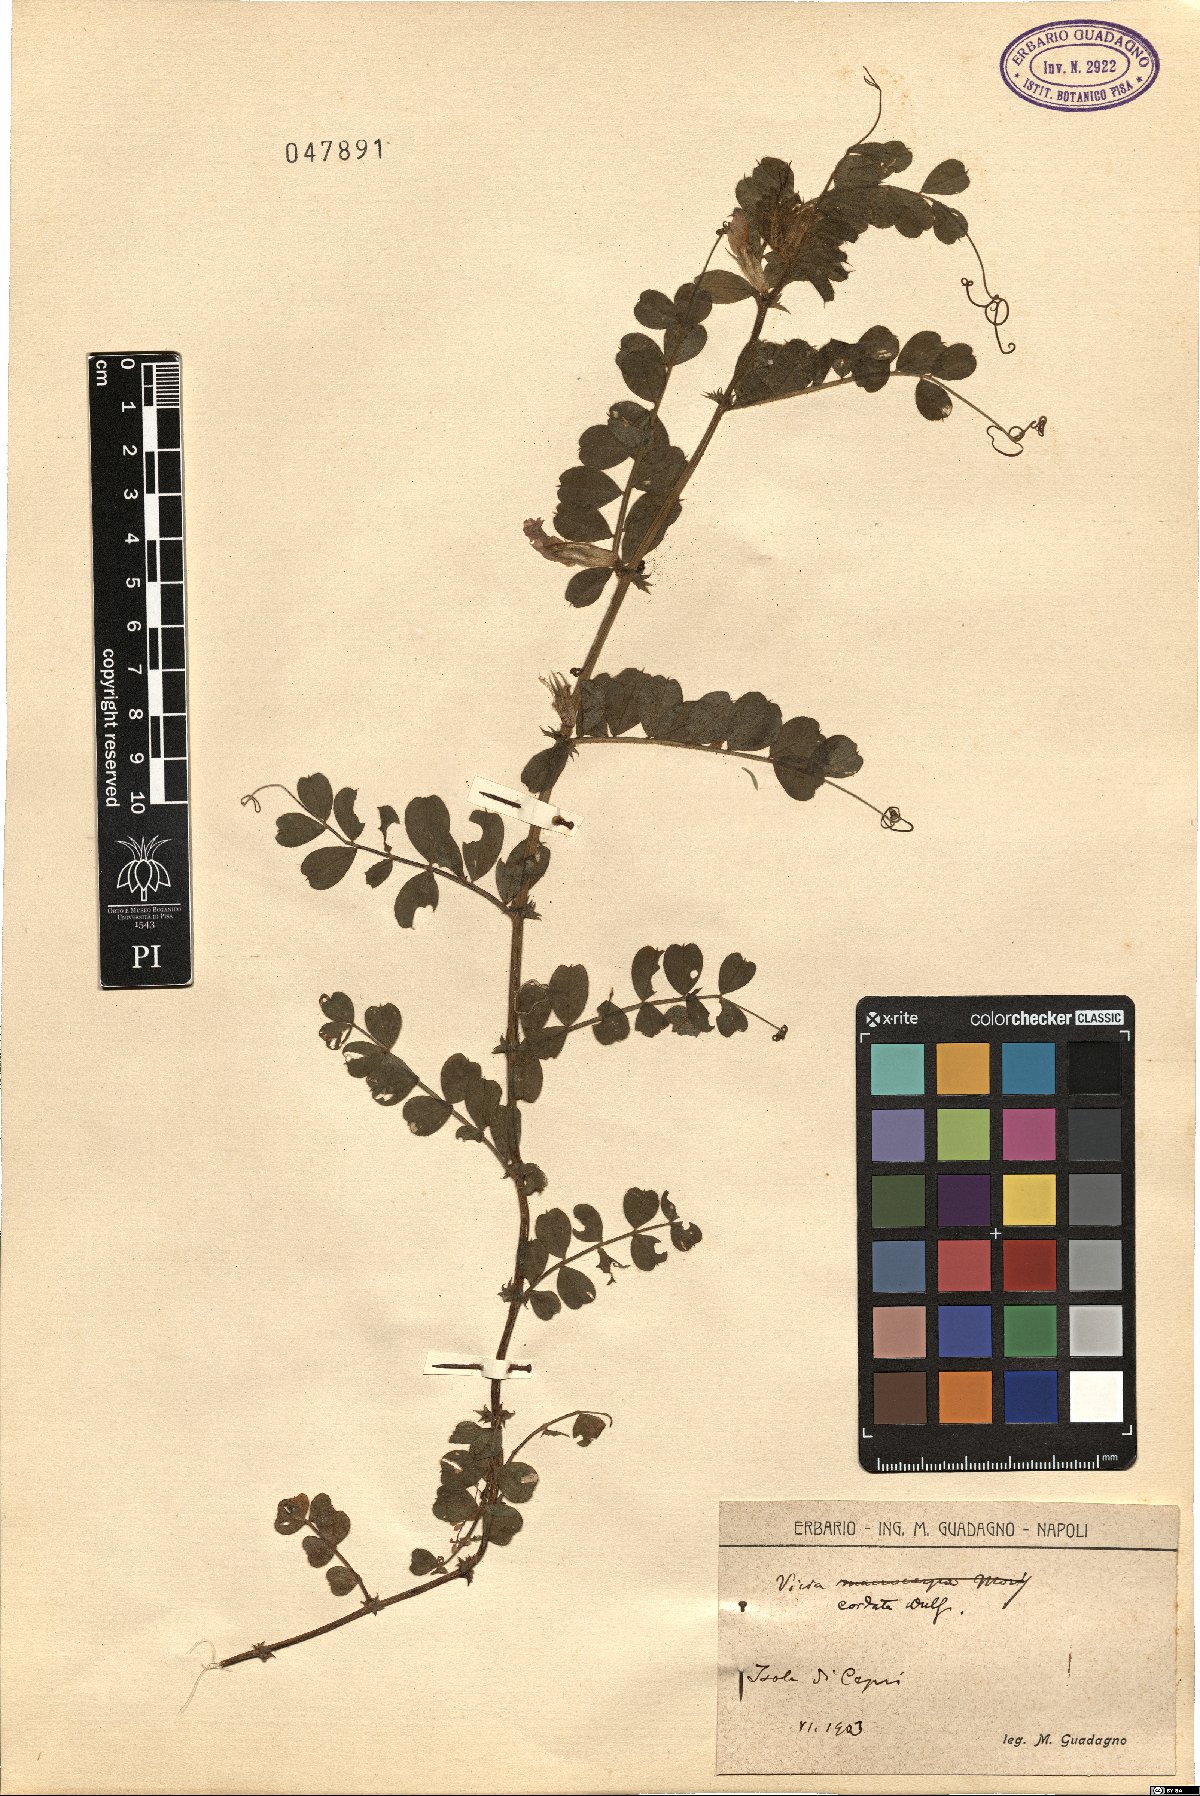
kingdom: Plantae
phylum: Tracheophyta
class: Magnoliopsida
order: Fabales
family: Fabaceae
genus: Vicia
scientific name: Vicia sativa
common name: Garden vetch
